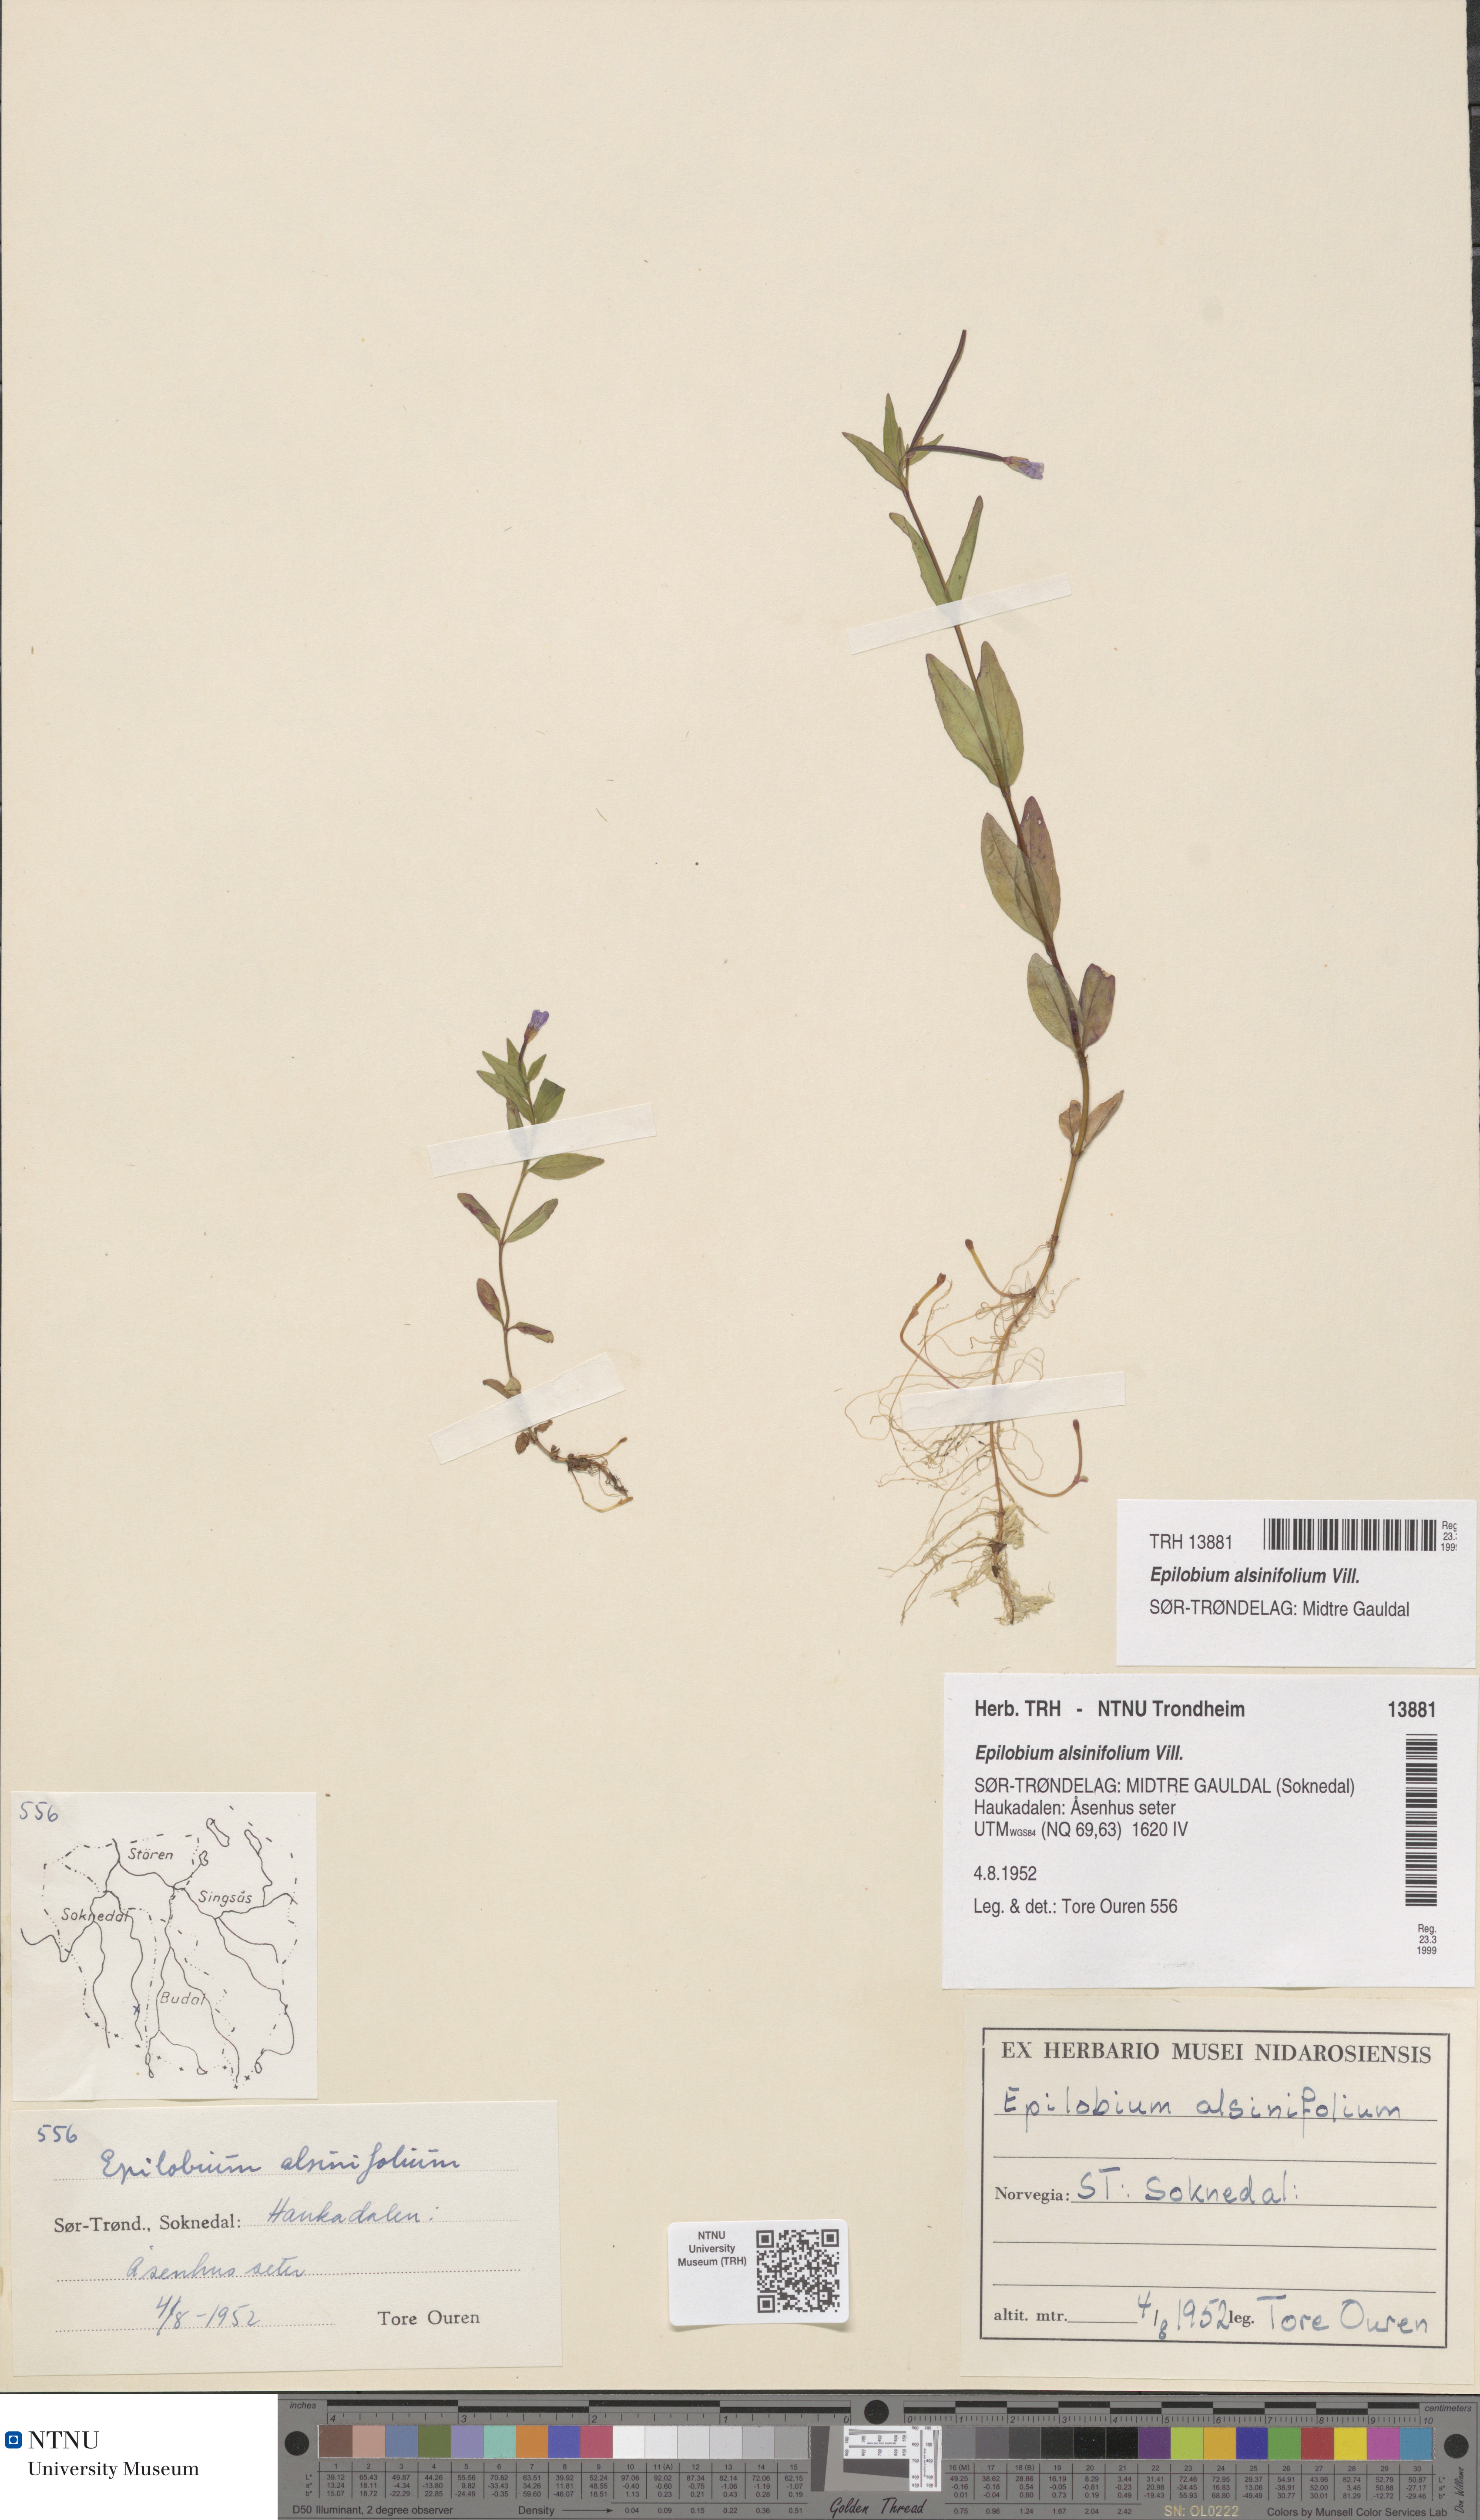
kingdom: Plantae
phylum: Tracheophyta
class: Magnoliopsida
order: Myrtales
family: Onagraceae
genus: Epilobium
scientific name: Epilobium alsinifolium
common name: Chickweed willowherb
